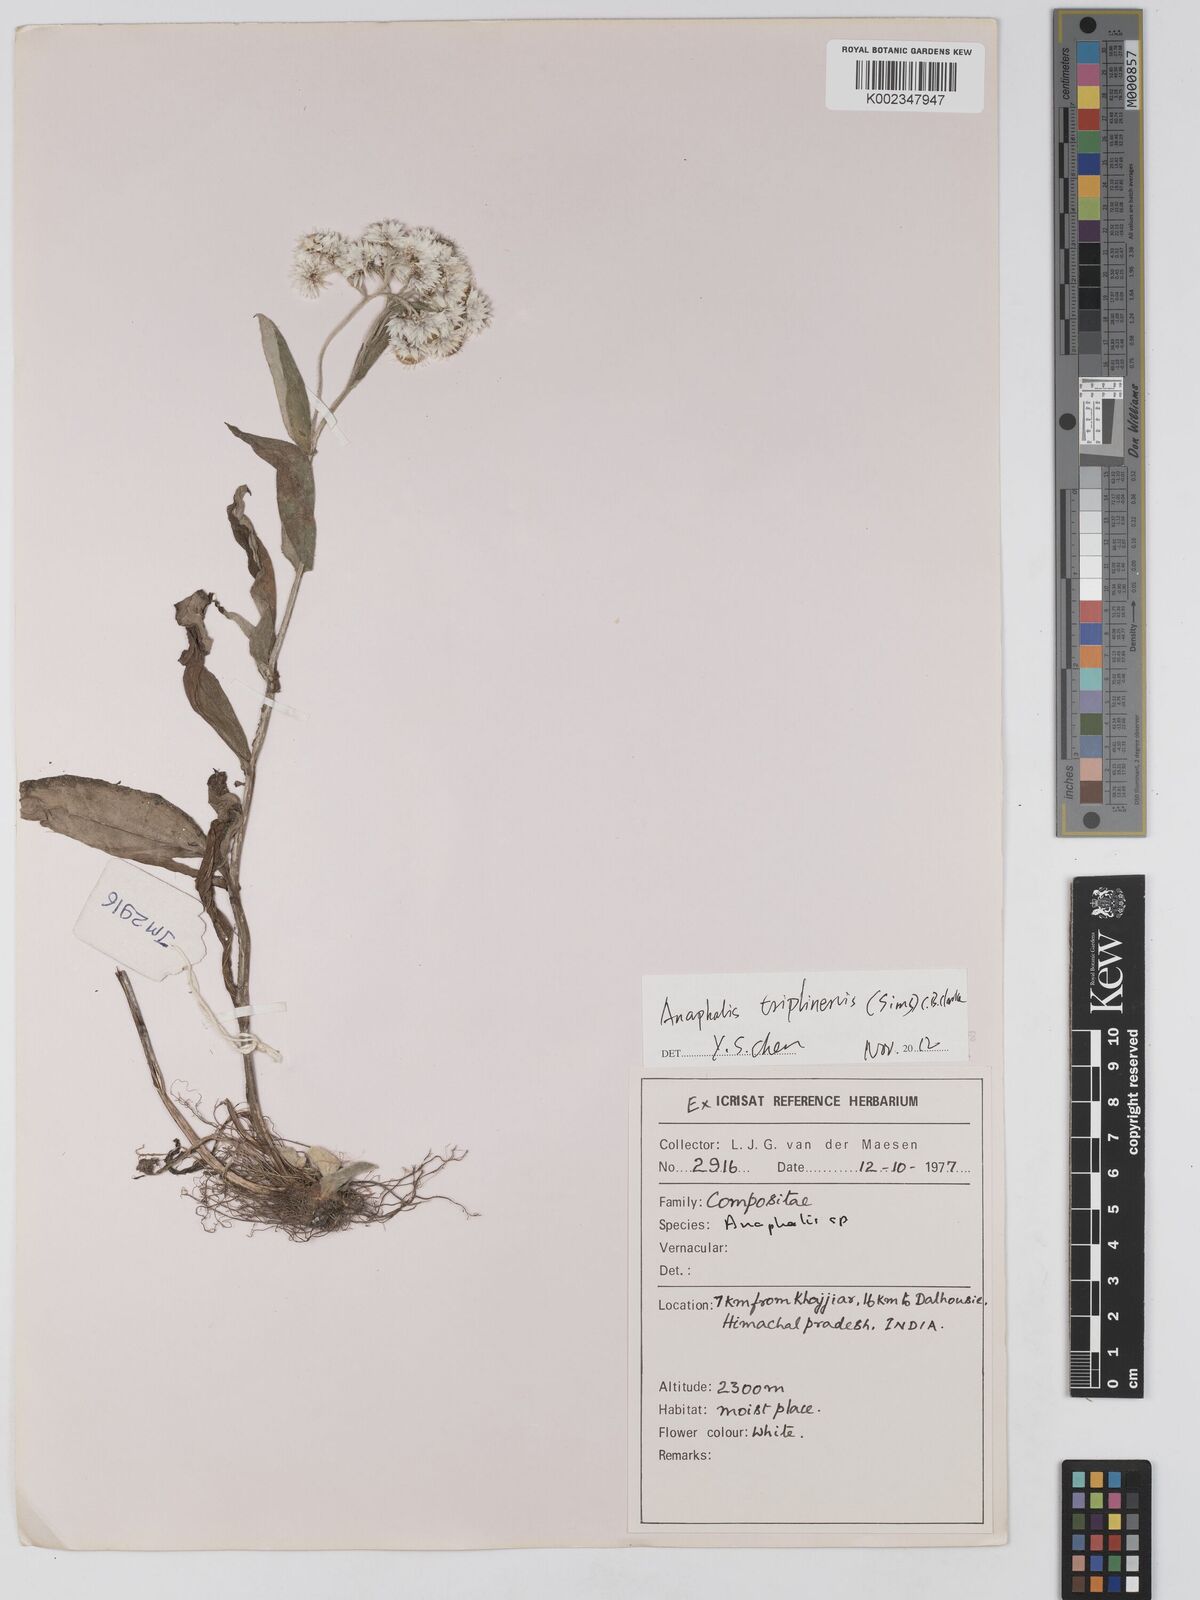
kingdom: Plantae
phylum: Tracheophyta
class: Magnoliopsida
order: Asterales
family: Asteraceae
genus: Anaphalis
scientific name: Anaphalis leptophylla
